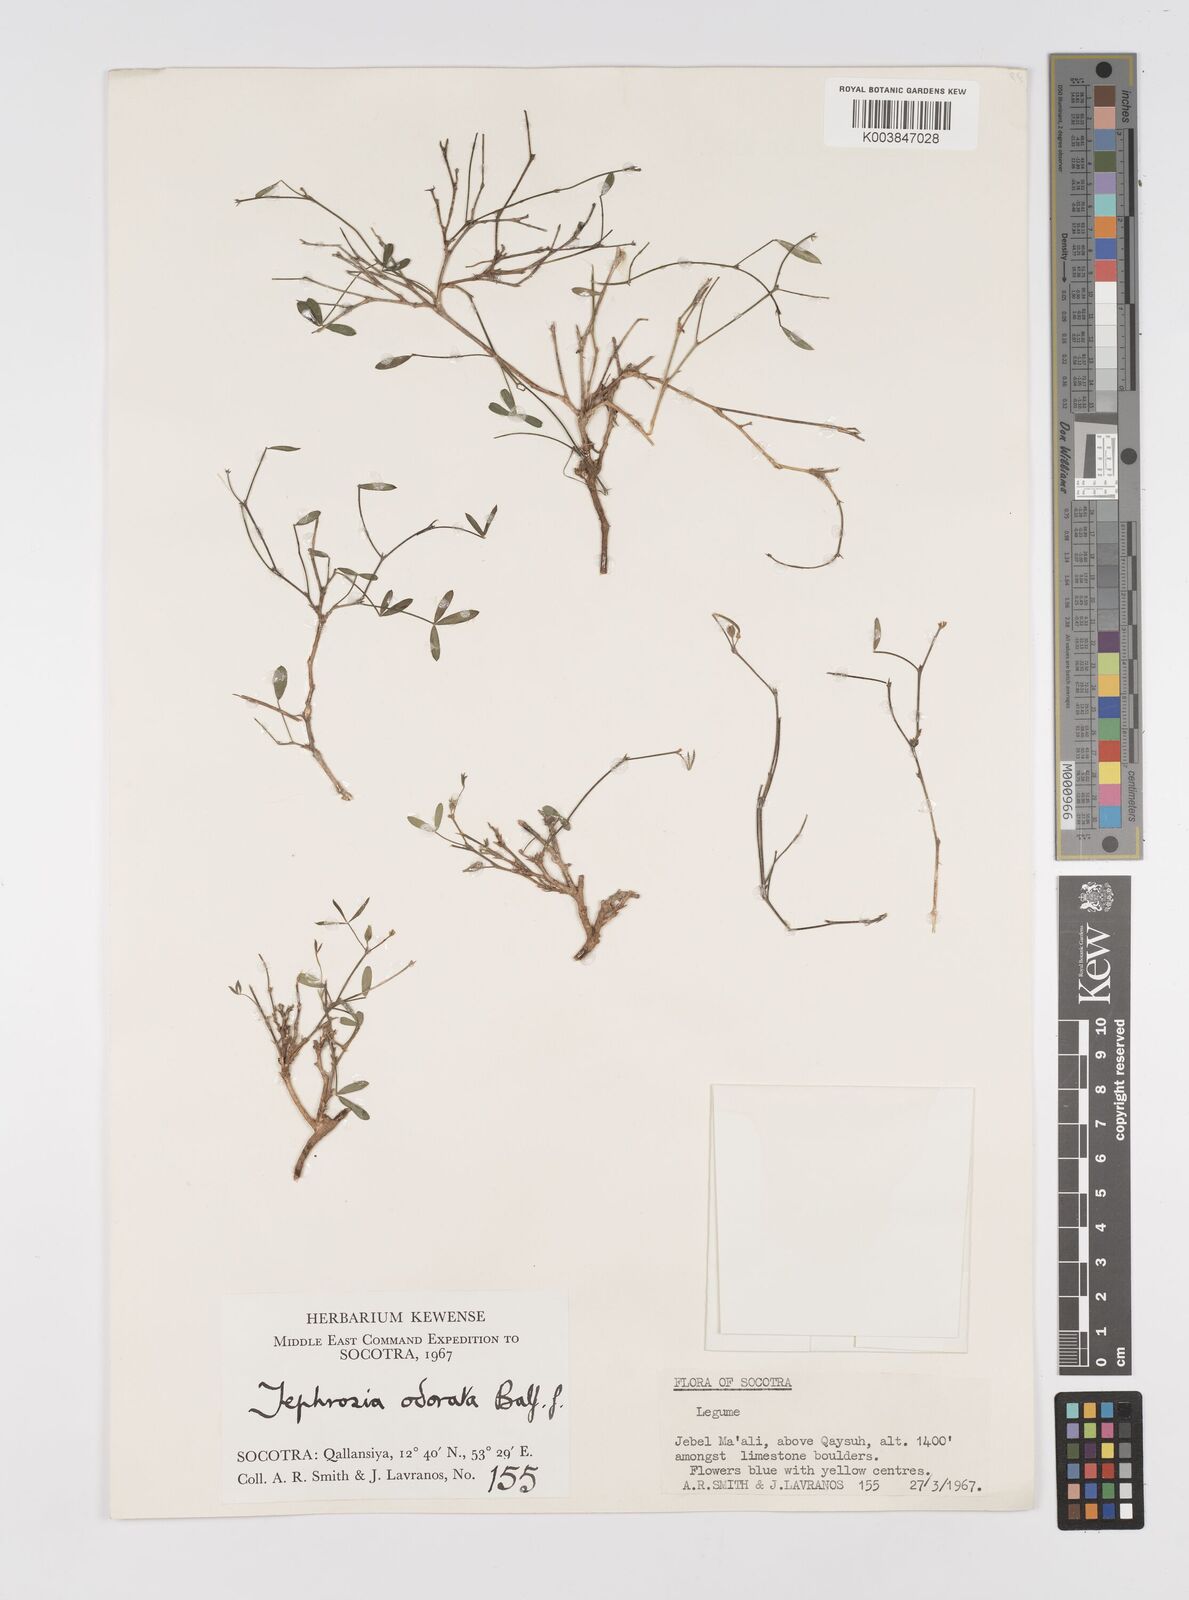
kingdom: Plantae
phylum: Tracheophyta
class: Magnoliopsida
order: Fabales
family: Fabaceae
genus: Tephrosia
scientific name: Tephrosia odorata
